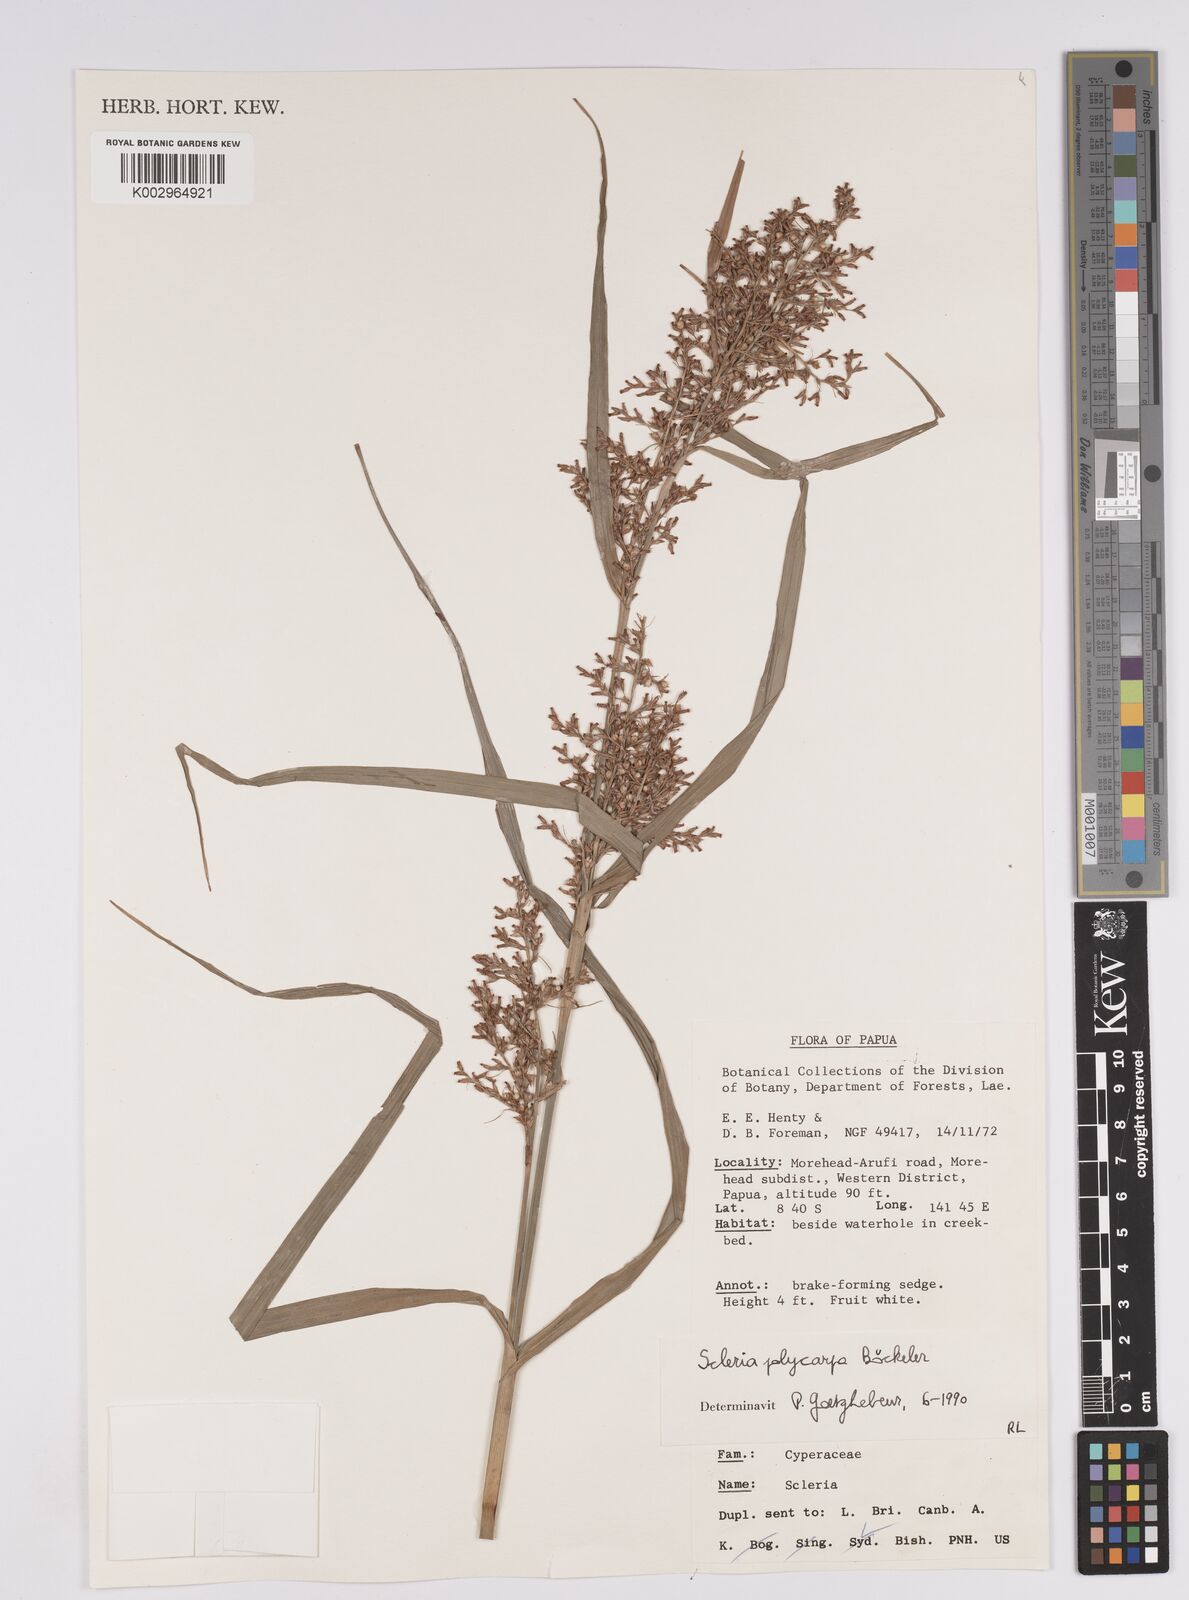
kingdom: Plantae
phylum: Tracheophyta
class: Liliopsida
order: Poales
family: Cyperaceae
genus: Scleria
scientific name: Scleria polycarpa
